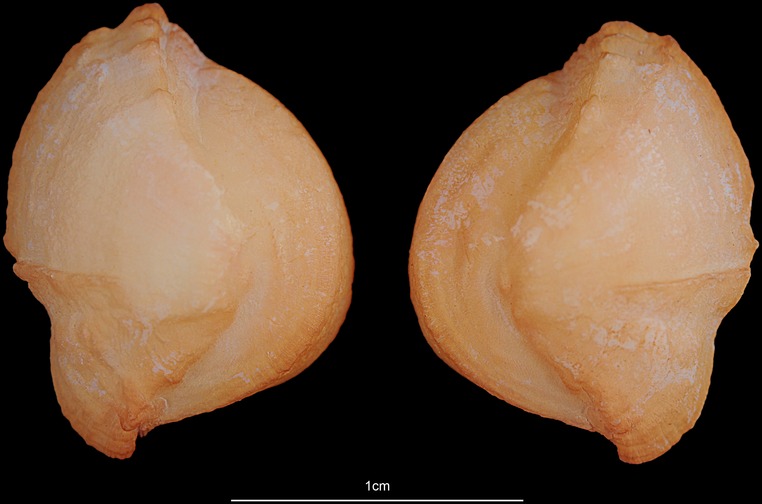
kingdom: Animalia
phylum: Chordata
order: Siluriformes
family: Ariidae
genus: Netuma
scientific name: Netuma thalassina
